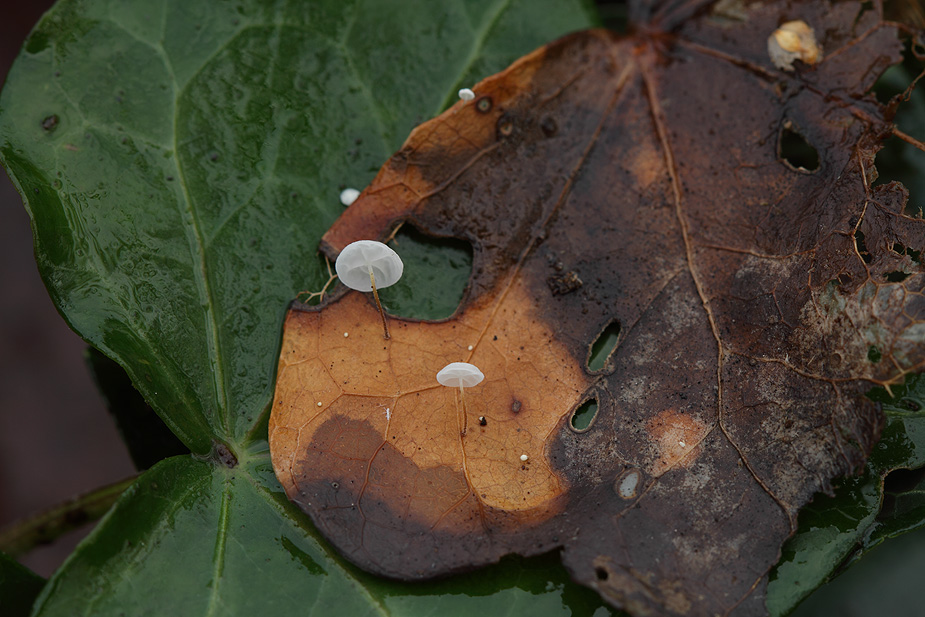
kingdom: Fungi
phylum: Basidiomycota
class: Agaricomycetes
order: Agaricales
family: Marasmiaceae
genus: Marasmius
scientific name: Marasmius epiphylloides
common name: vedbend-bruskhat
